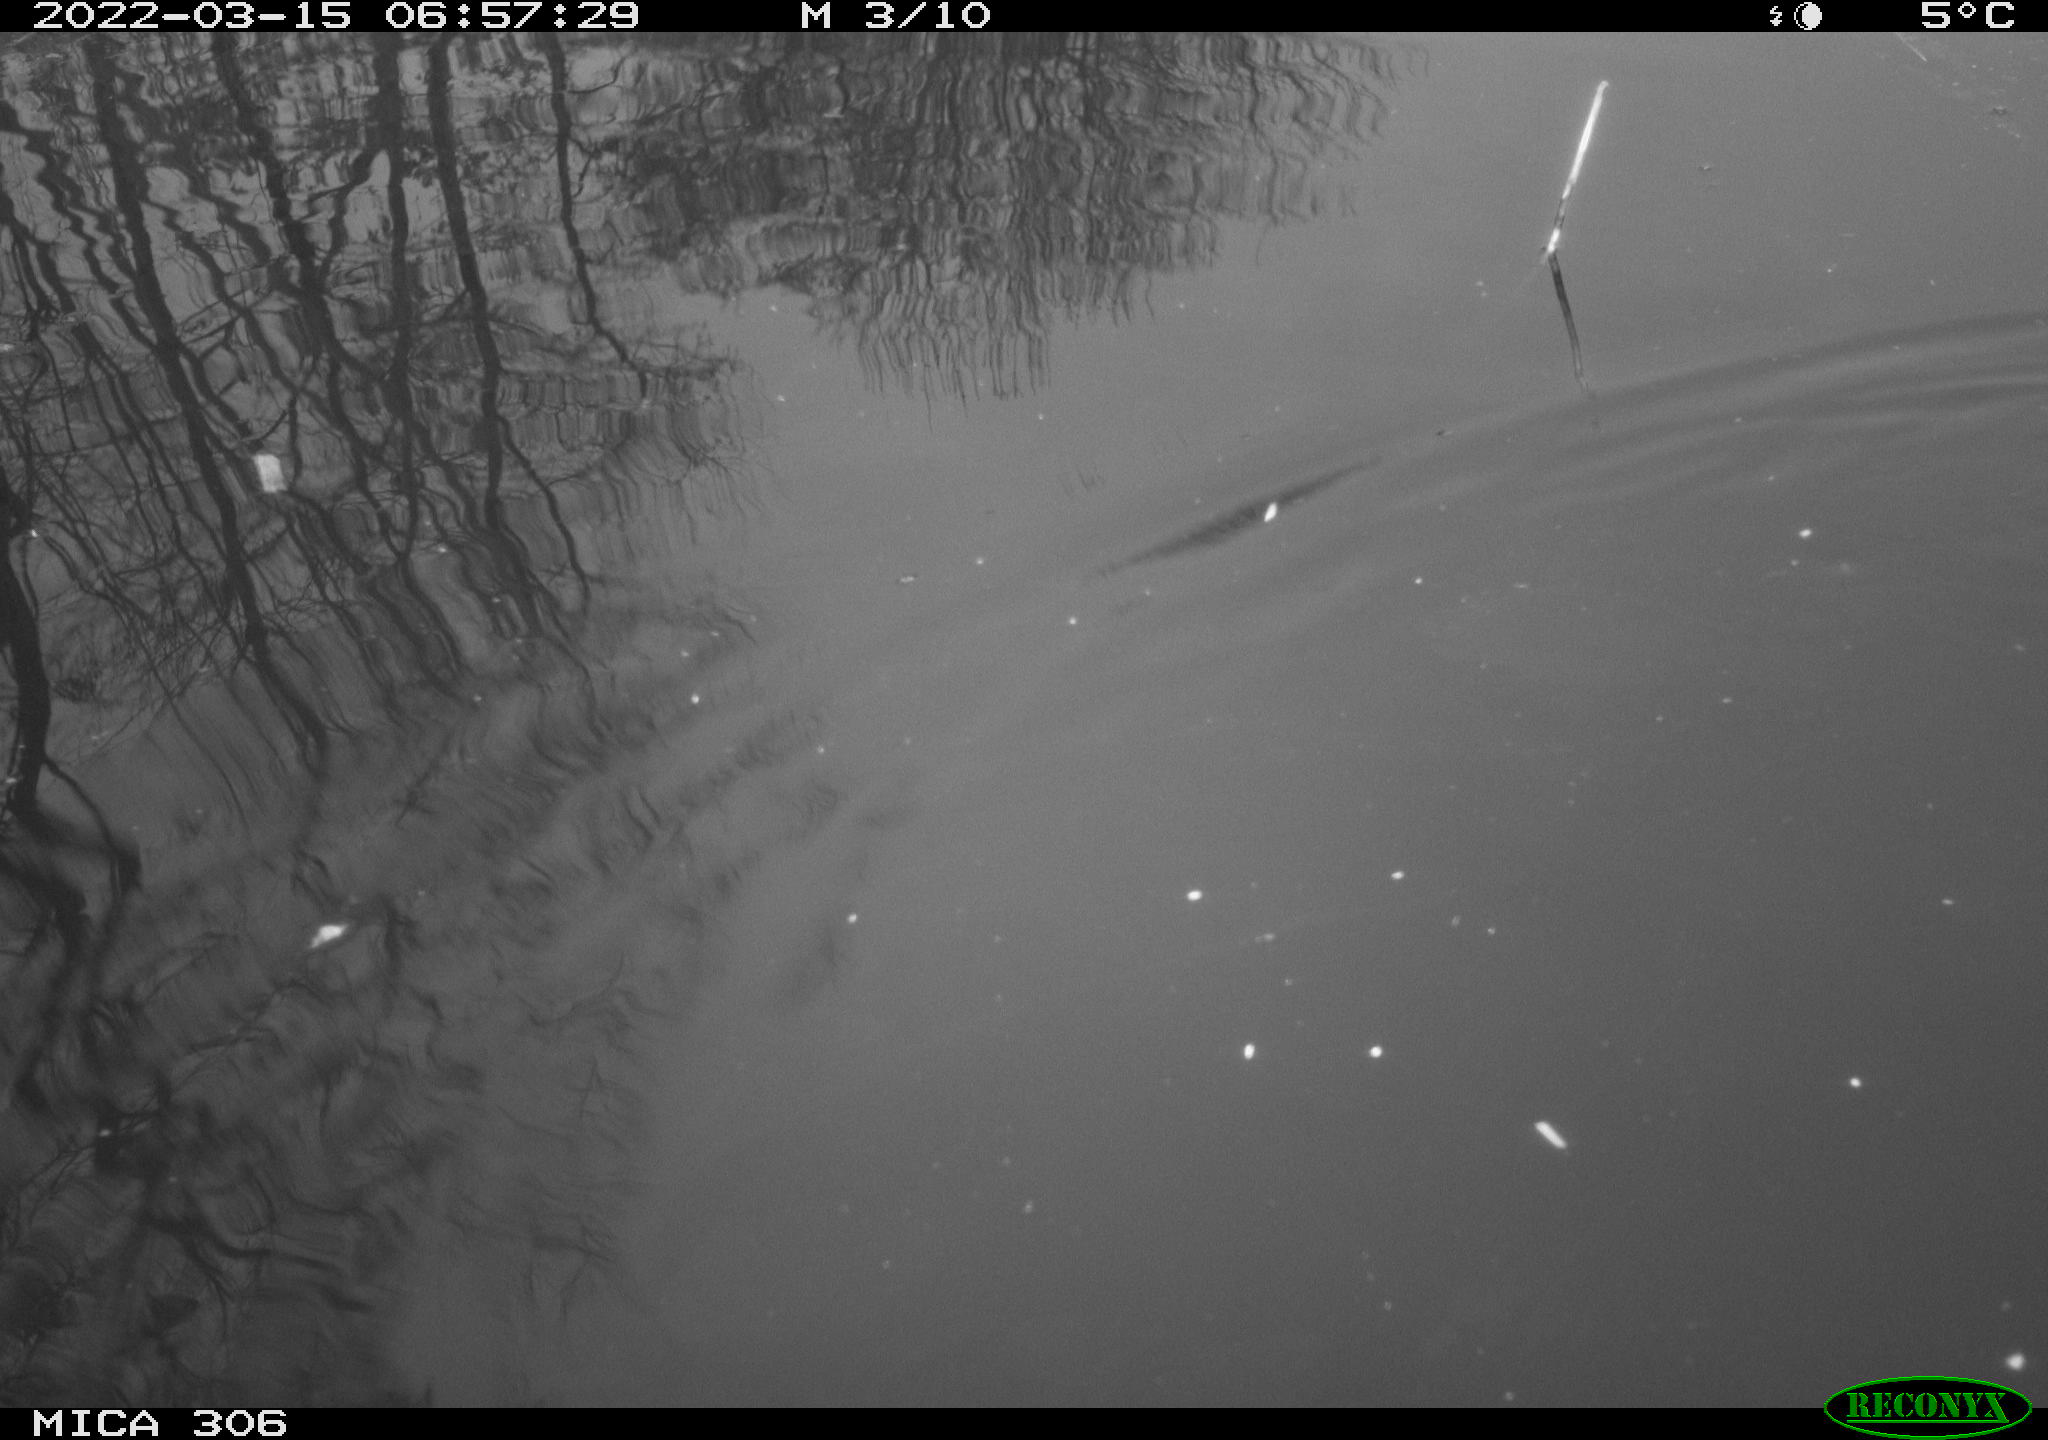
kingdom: Animalia
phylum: Chordata
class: Aves
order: Gruiformes
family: Rallidae
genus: Gallinula
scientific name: Gallinula chloropus
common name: Common moorhen
